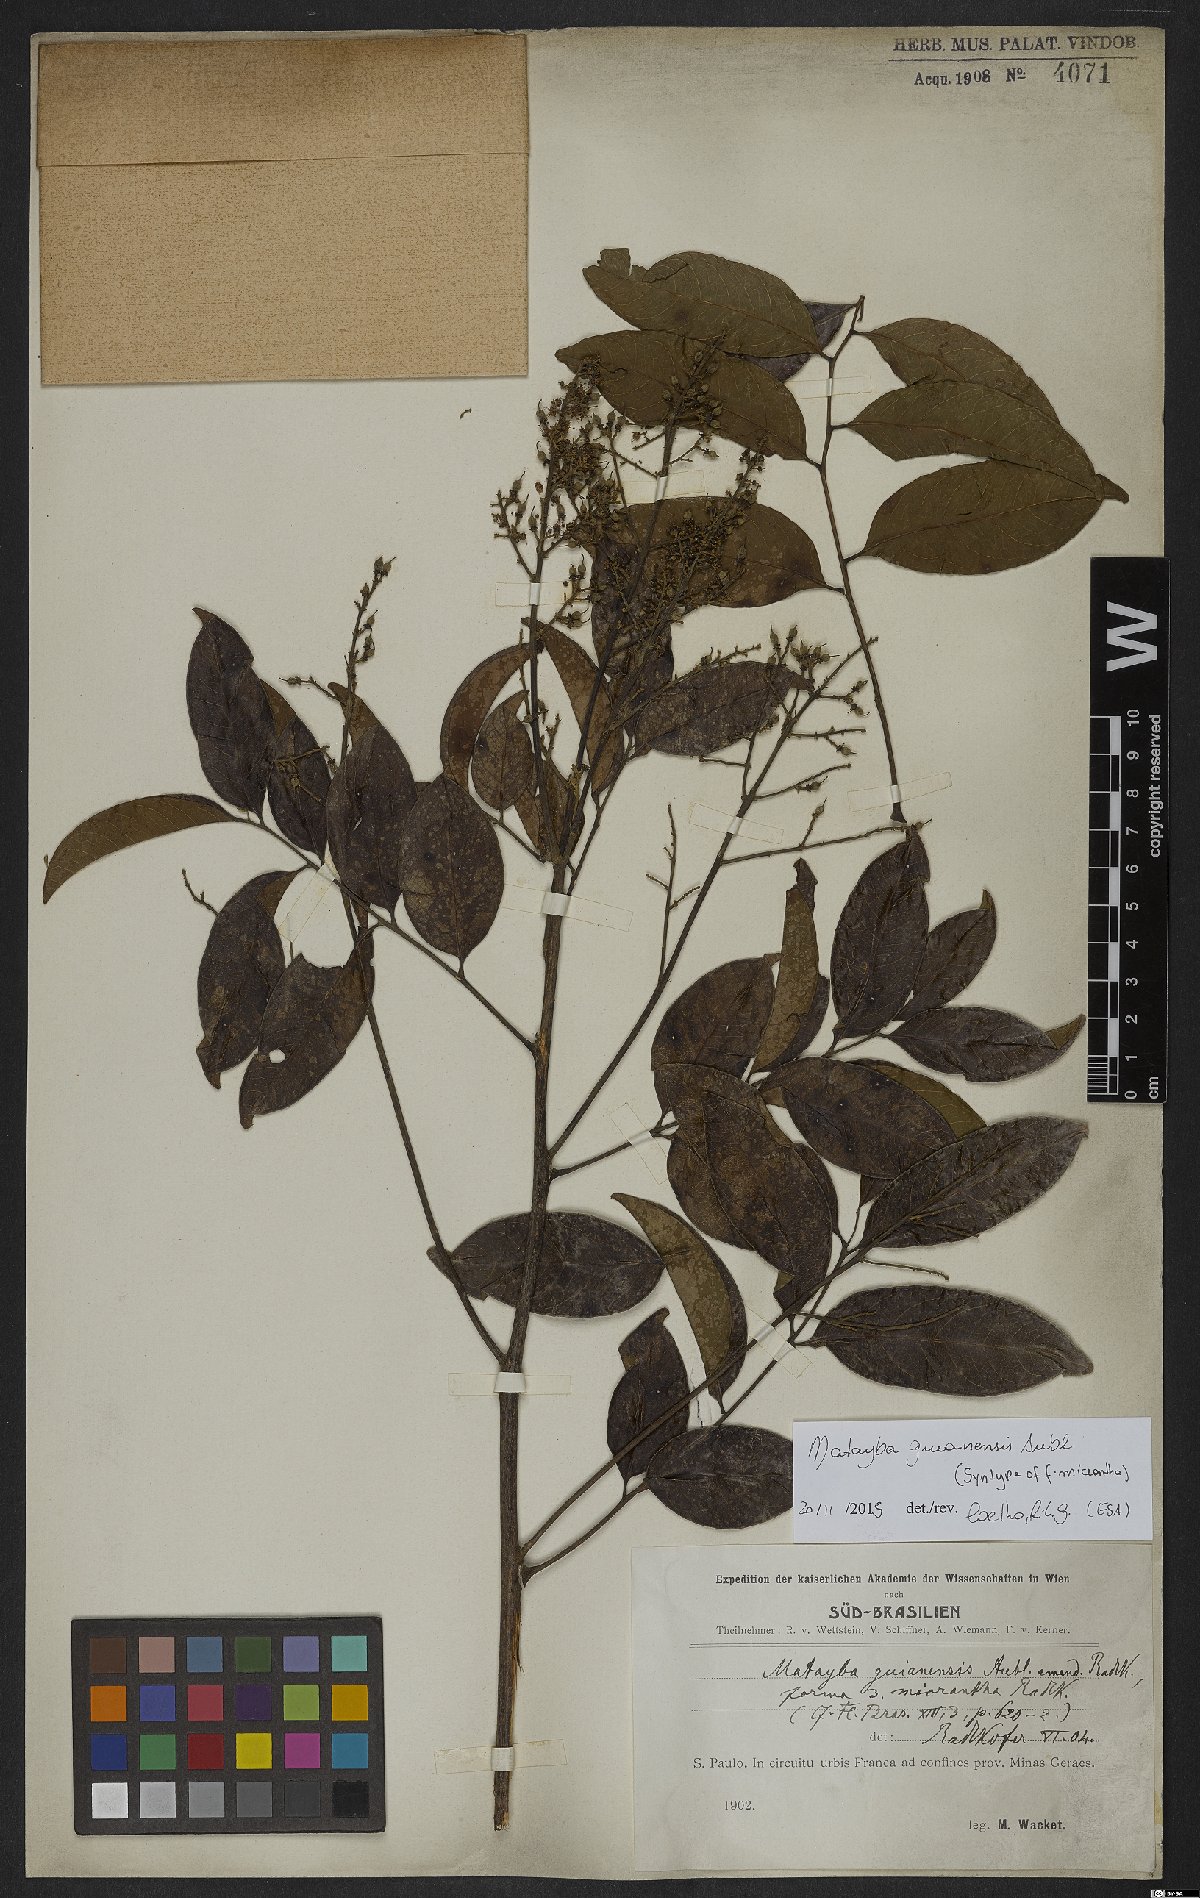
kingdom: Plantae
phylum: Tracheophyta
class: Magnoliopsida
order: Sapindales
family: Sapindaceae
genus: Matayba
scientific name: Matayba guianensis
